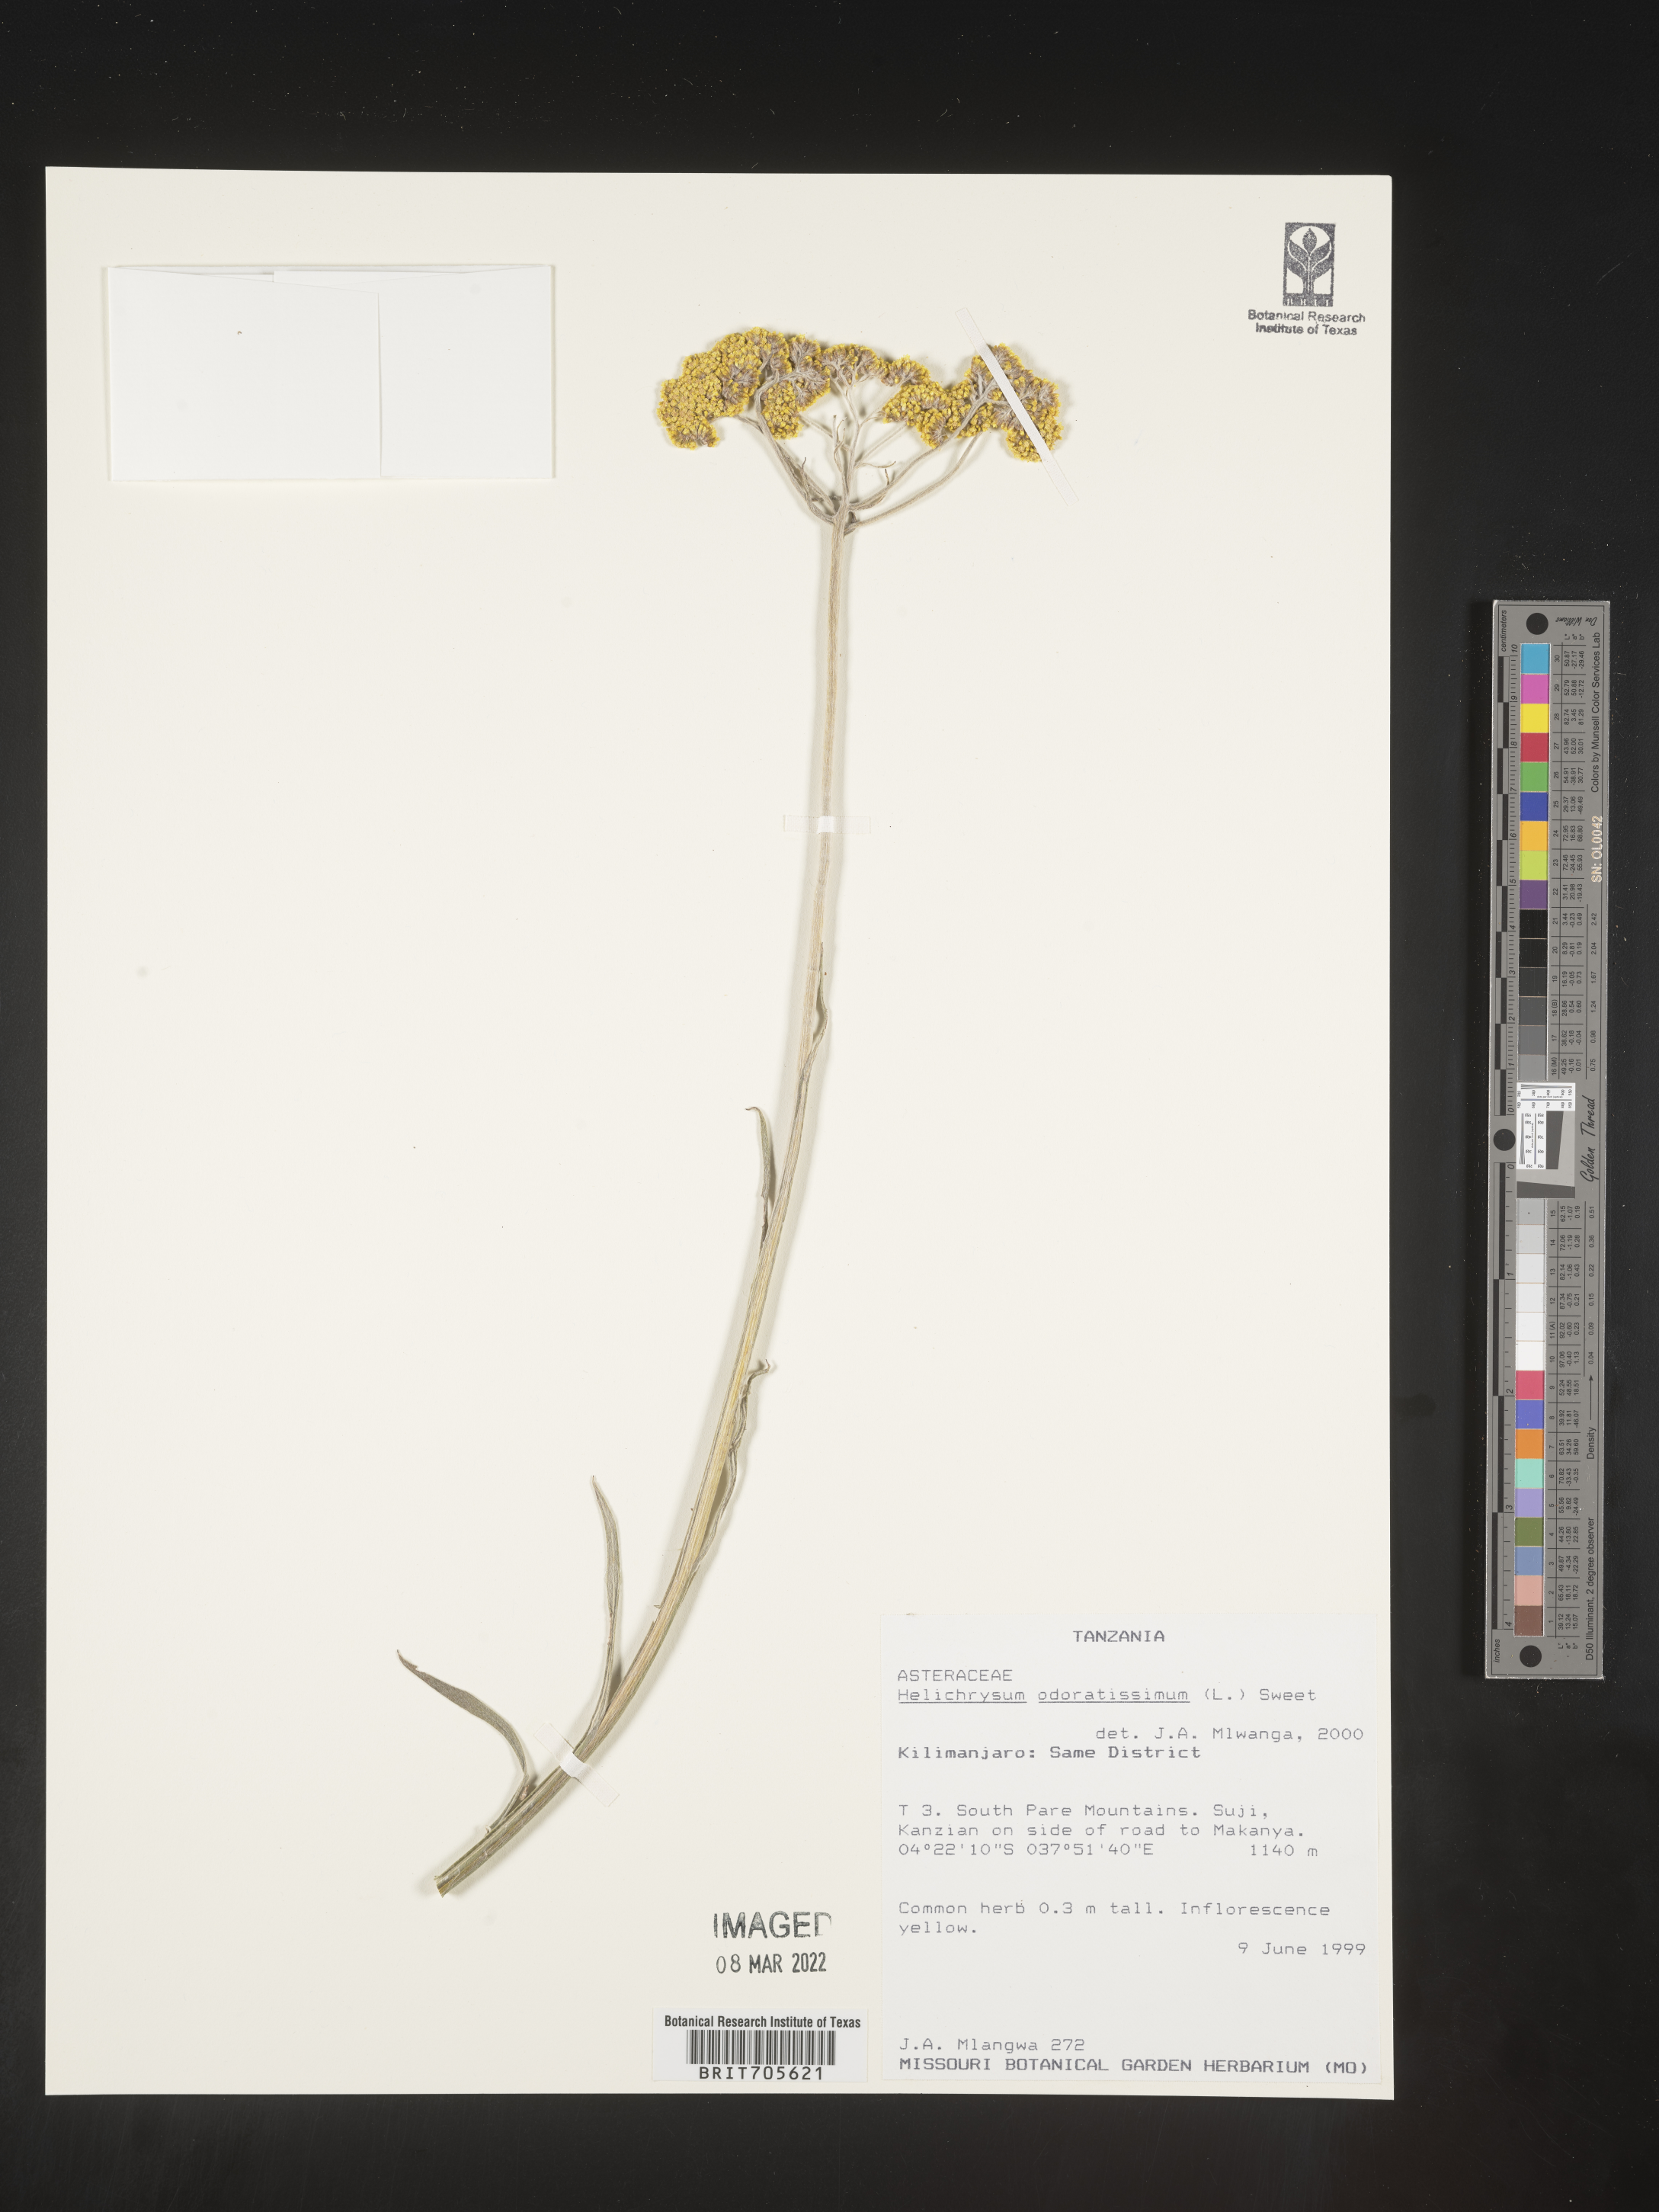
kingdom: Plantae
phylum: Tracheophyta
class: Magnoliopsida
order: Asterales
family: Asteraceae
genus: Helichrysum
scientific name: Helichrysum odoratissimum
